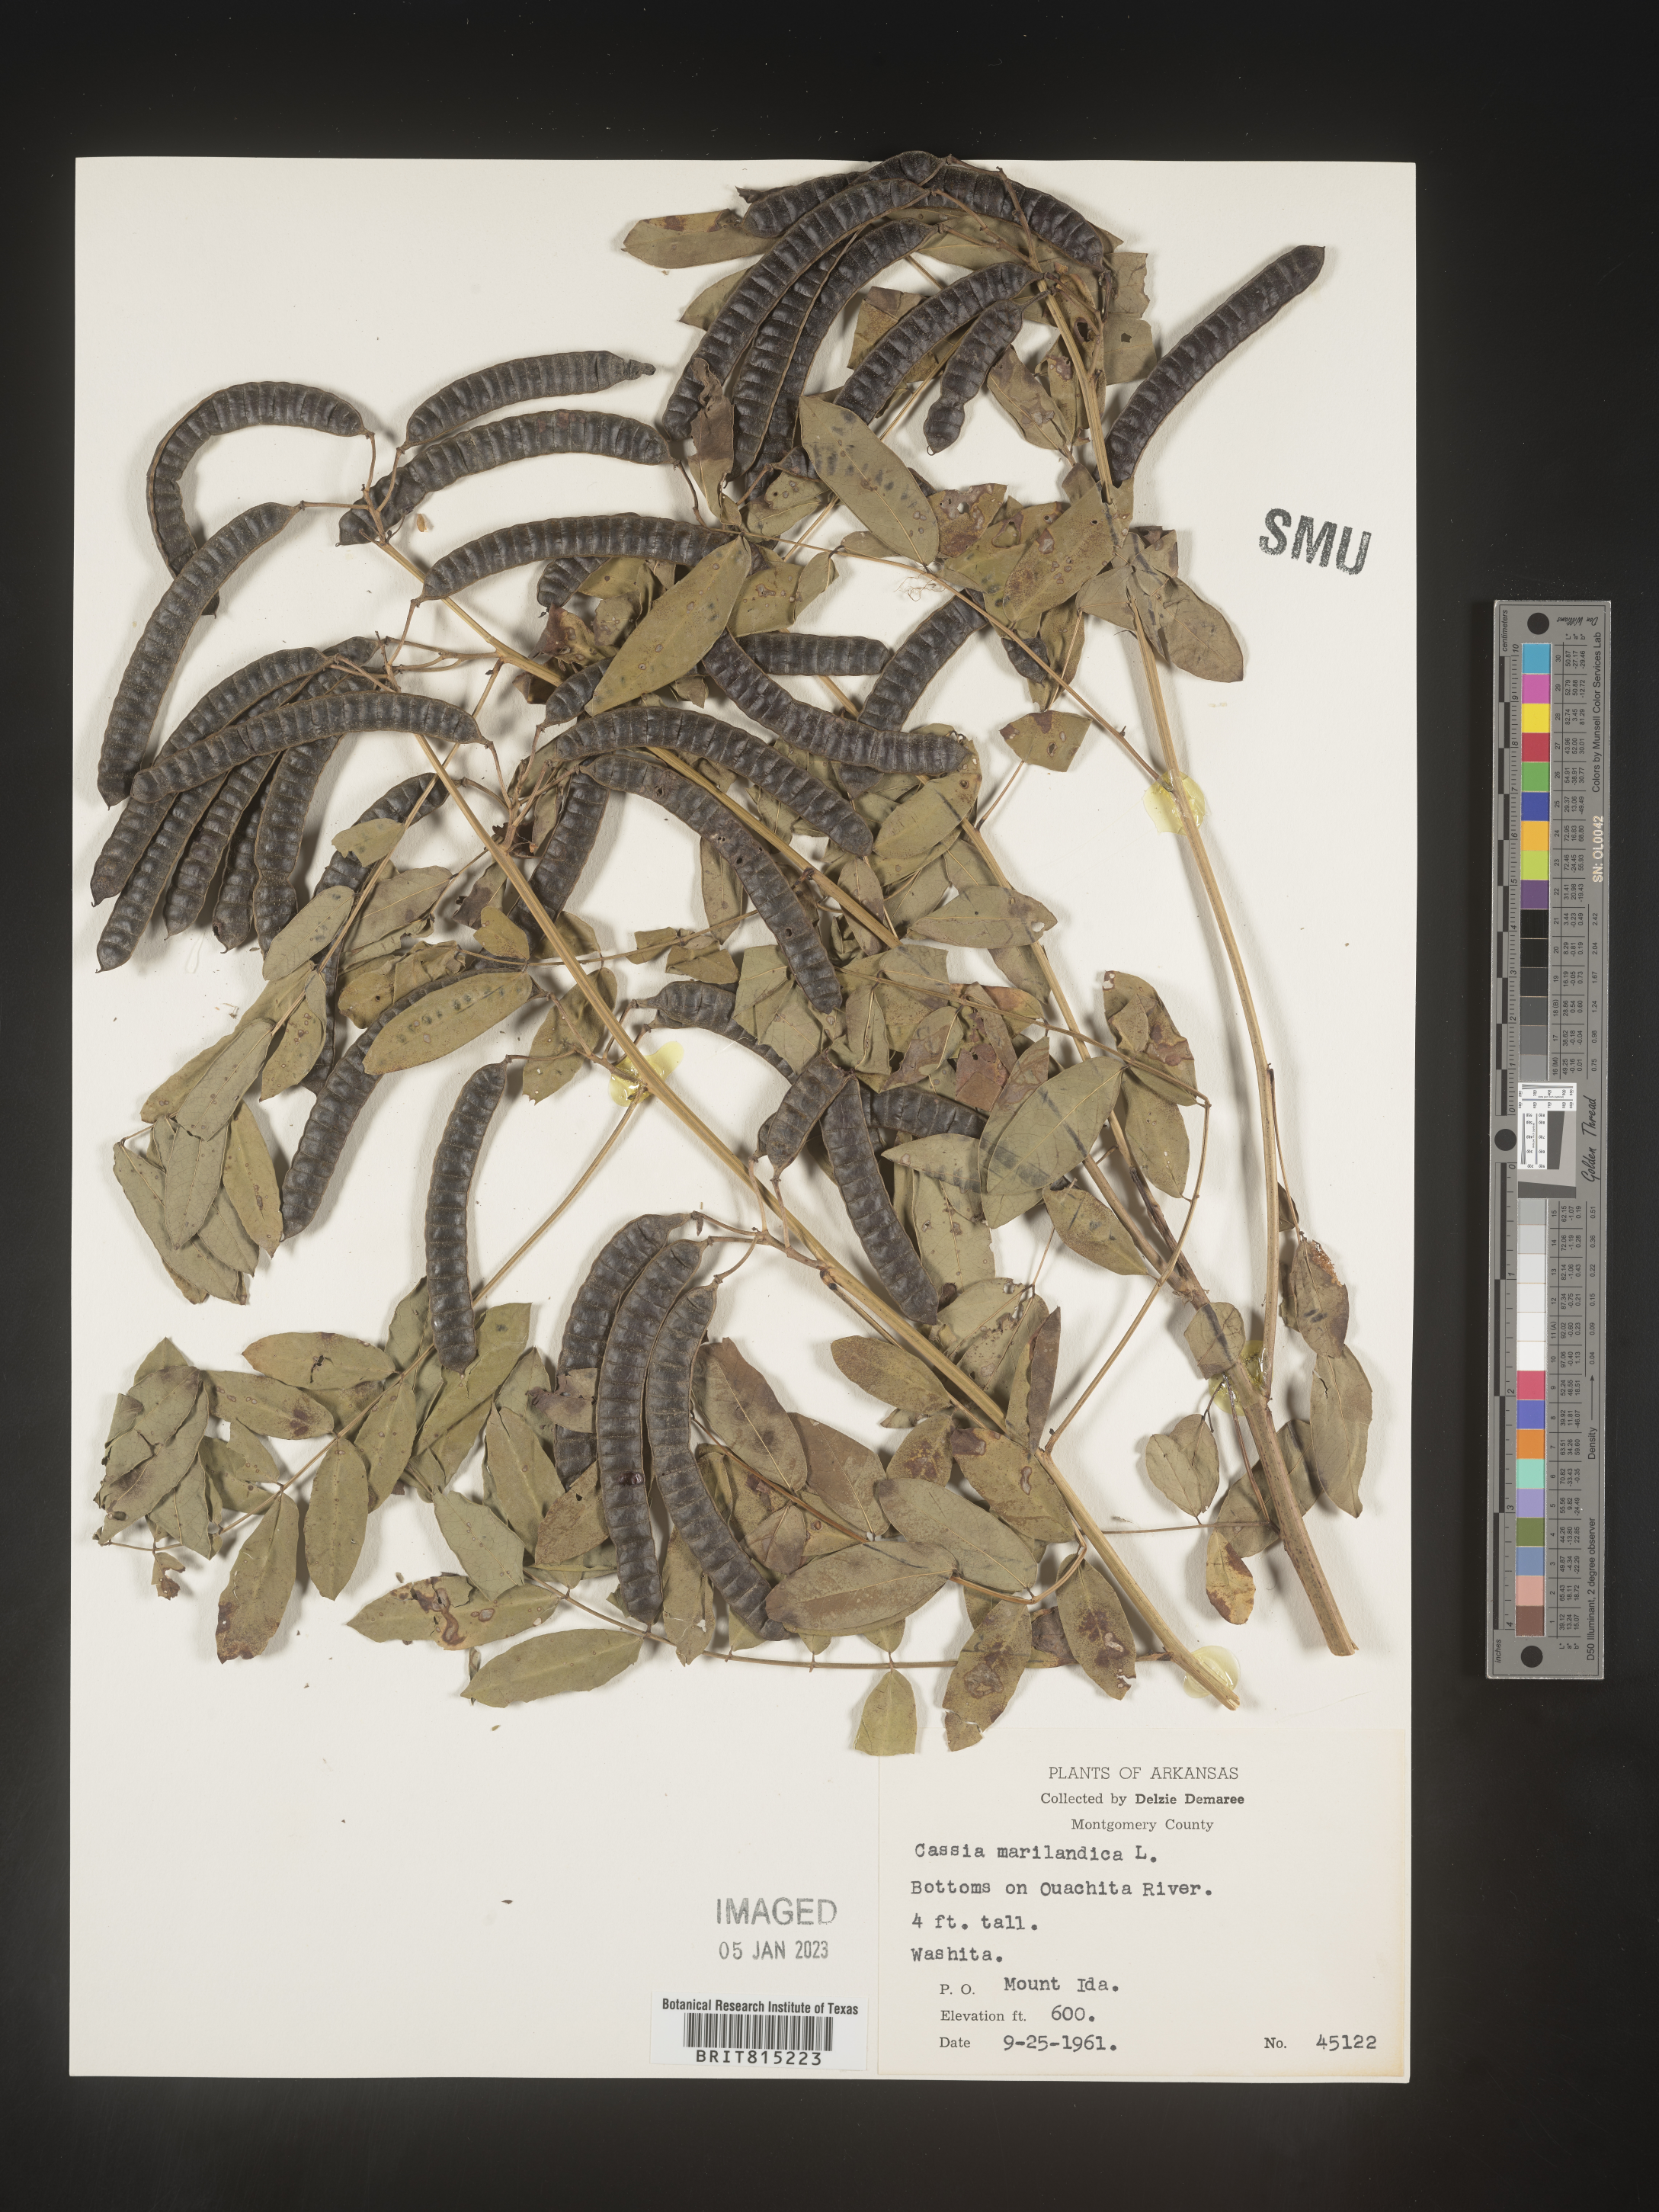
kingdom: Plantae
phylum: Tracheophyta
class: Magnoliopsida
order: Fabales
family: Fabaceae
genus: Senna
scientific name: Senna marilandica
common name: American senna
